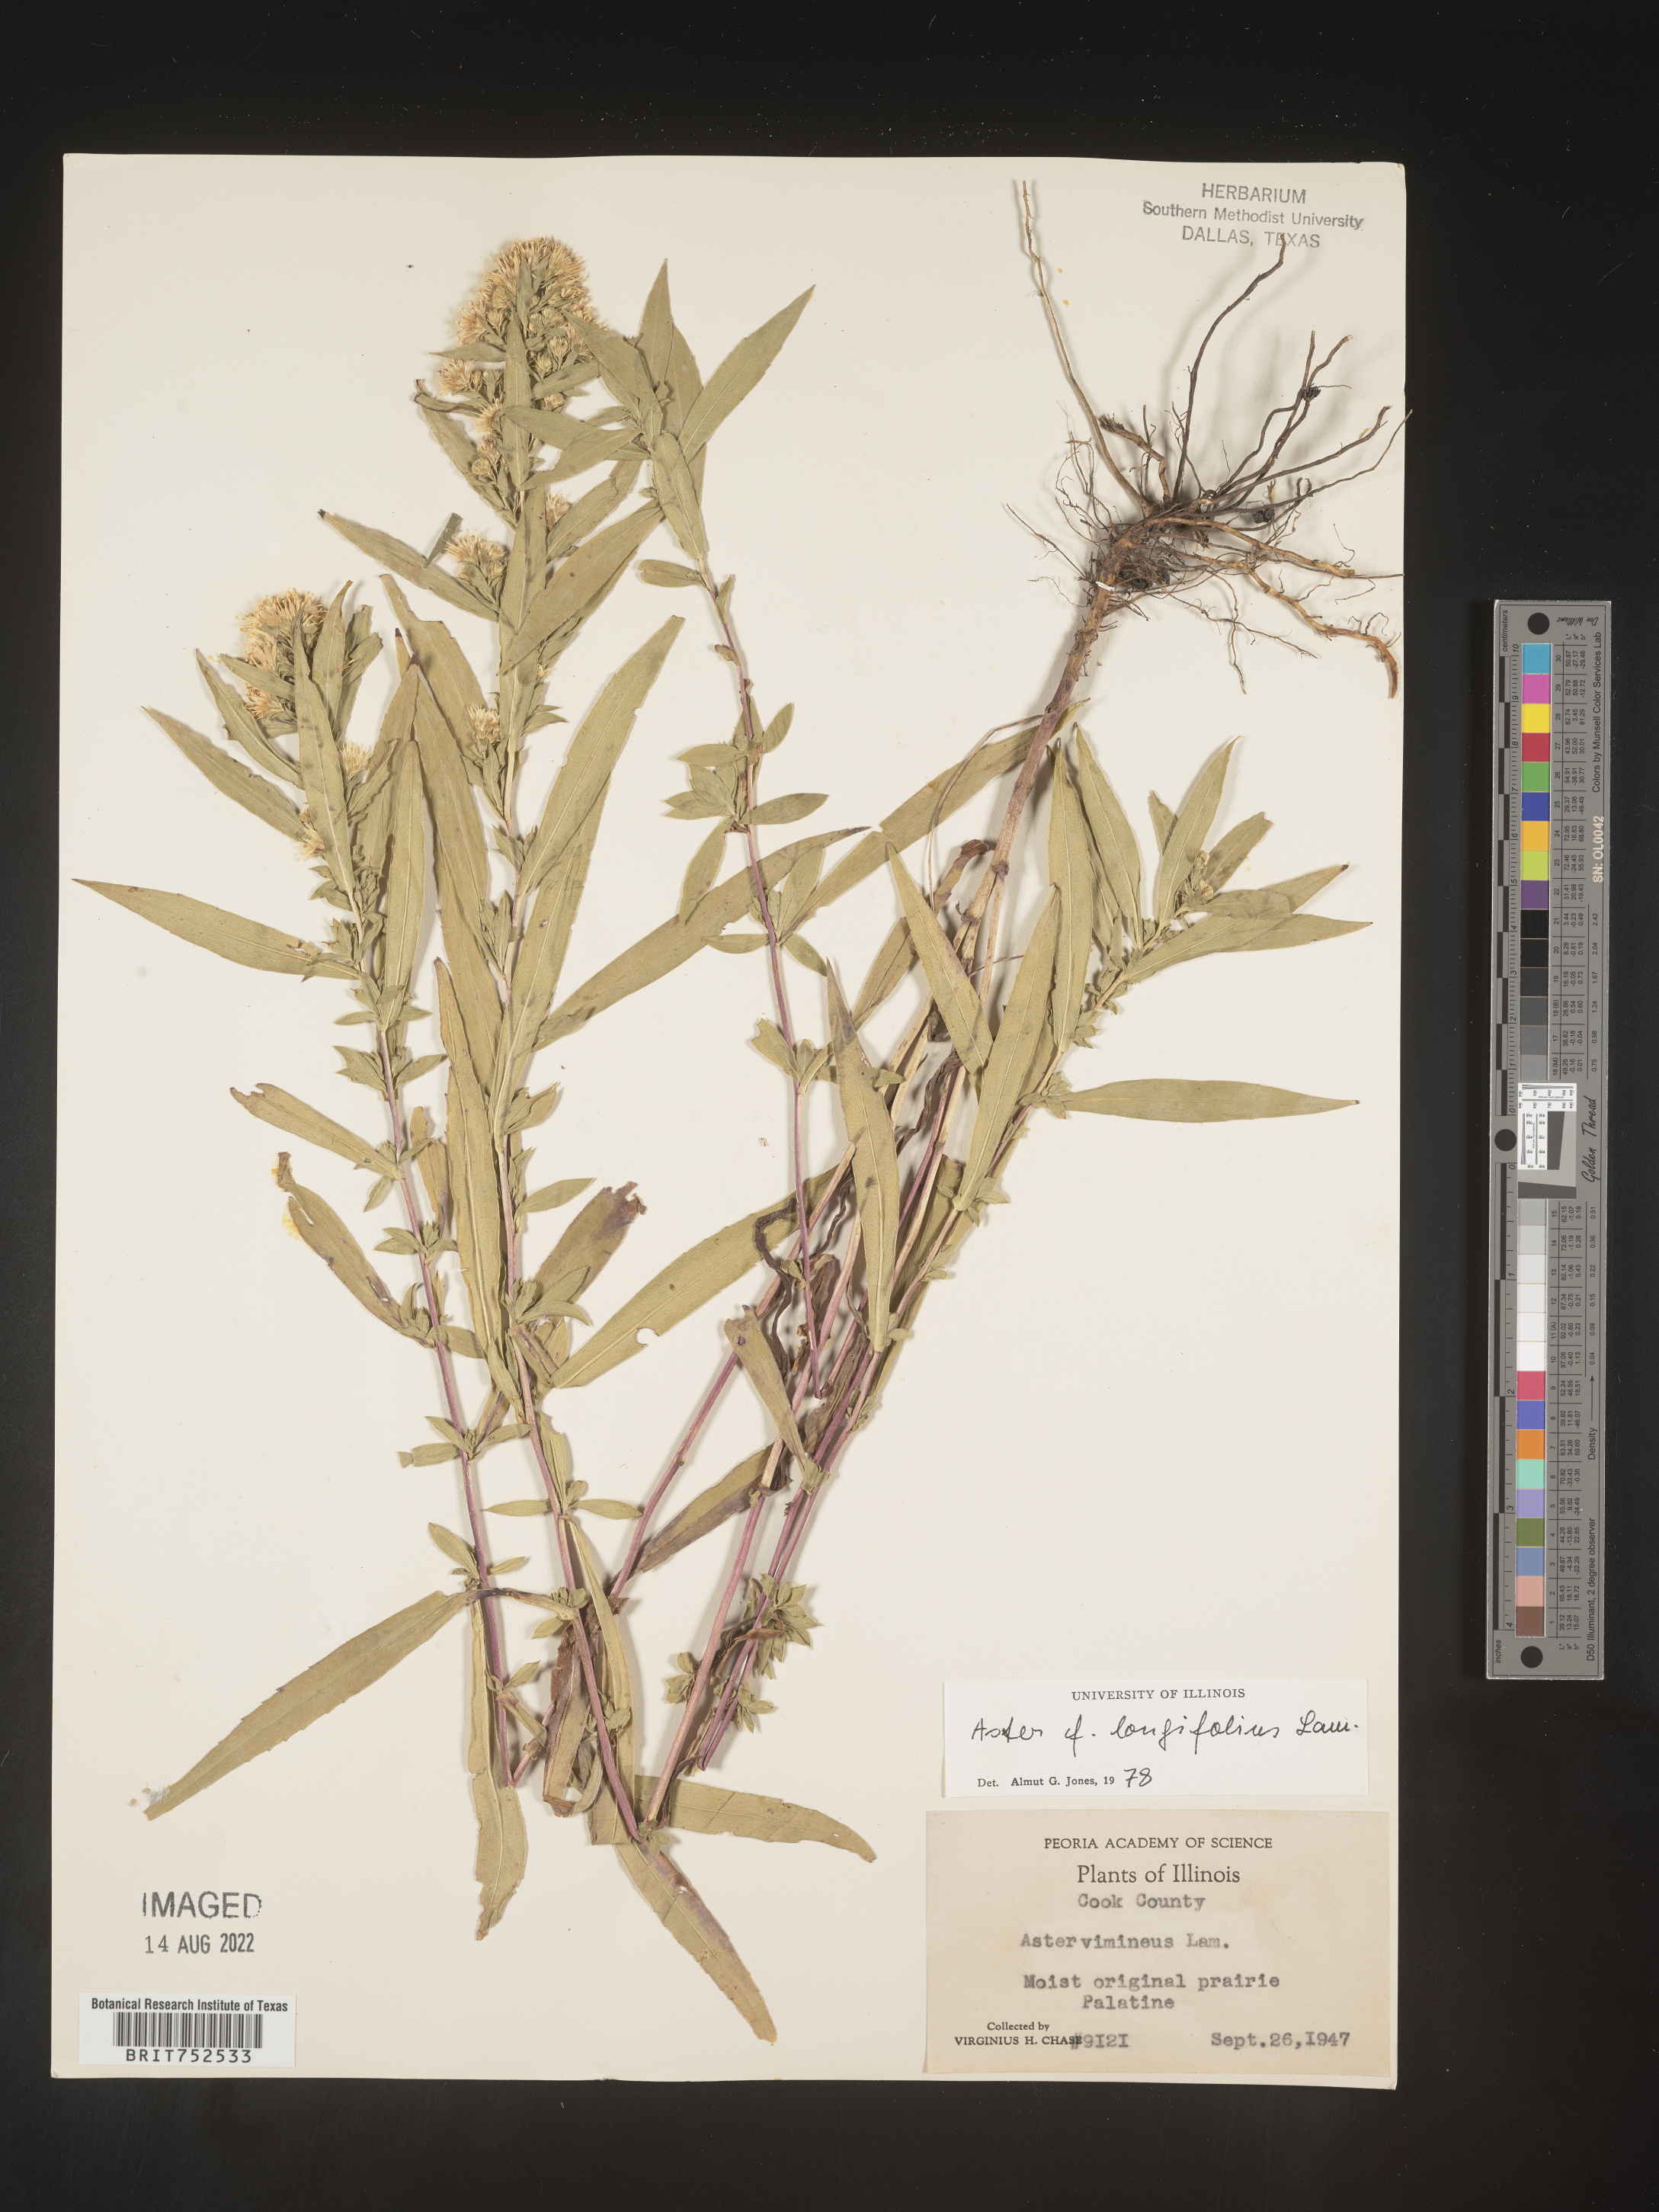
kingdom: Plantae
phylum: Tracheophyta
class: Magnoliopsida
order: Asterales
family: Asteraceae
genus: Symphyotrichum
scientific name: Symphyotrichum lanceolatum
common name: Panicled aster
